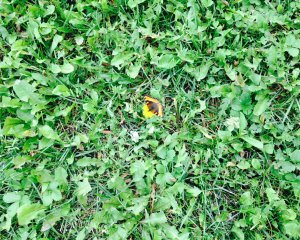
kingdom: Animalia
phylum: Arthropoda
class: Insecta
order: Lepidoptera
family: Nymphalidae
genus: Aglais
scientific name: Aglais milberti
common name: Milbert's Tortoiseshell
